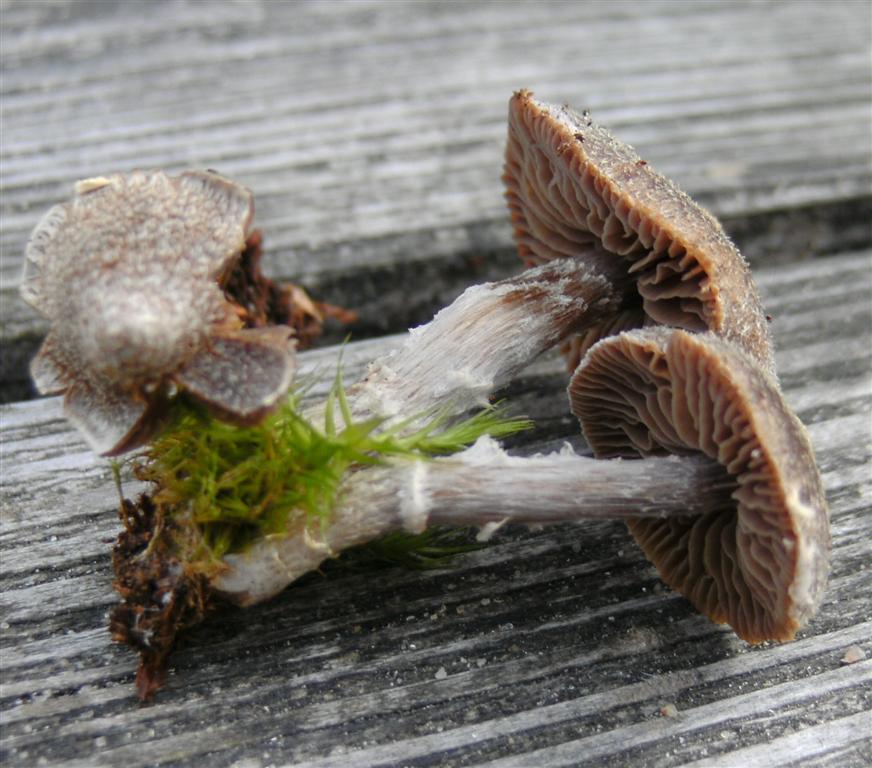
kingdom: Fungi
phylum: Basidiomycota
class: Agaricomycetes
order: Agaricales
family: Cortinariaceae
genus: Cortinarius
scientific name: Cortinarius
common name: pelargonie-slørhat
